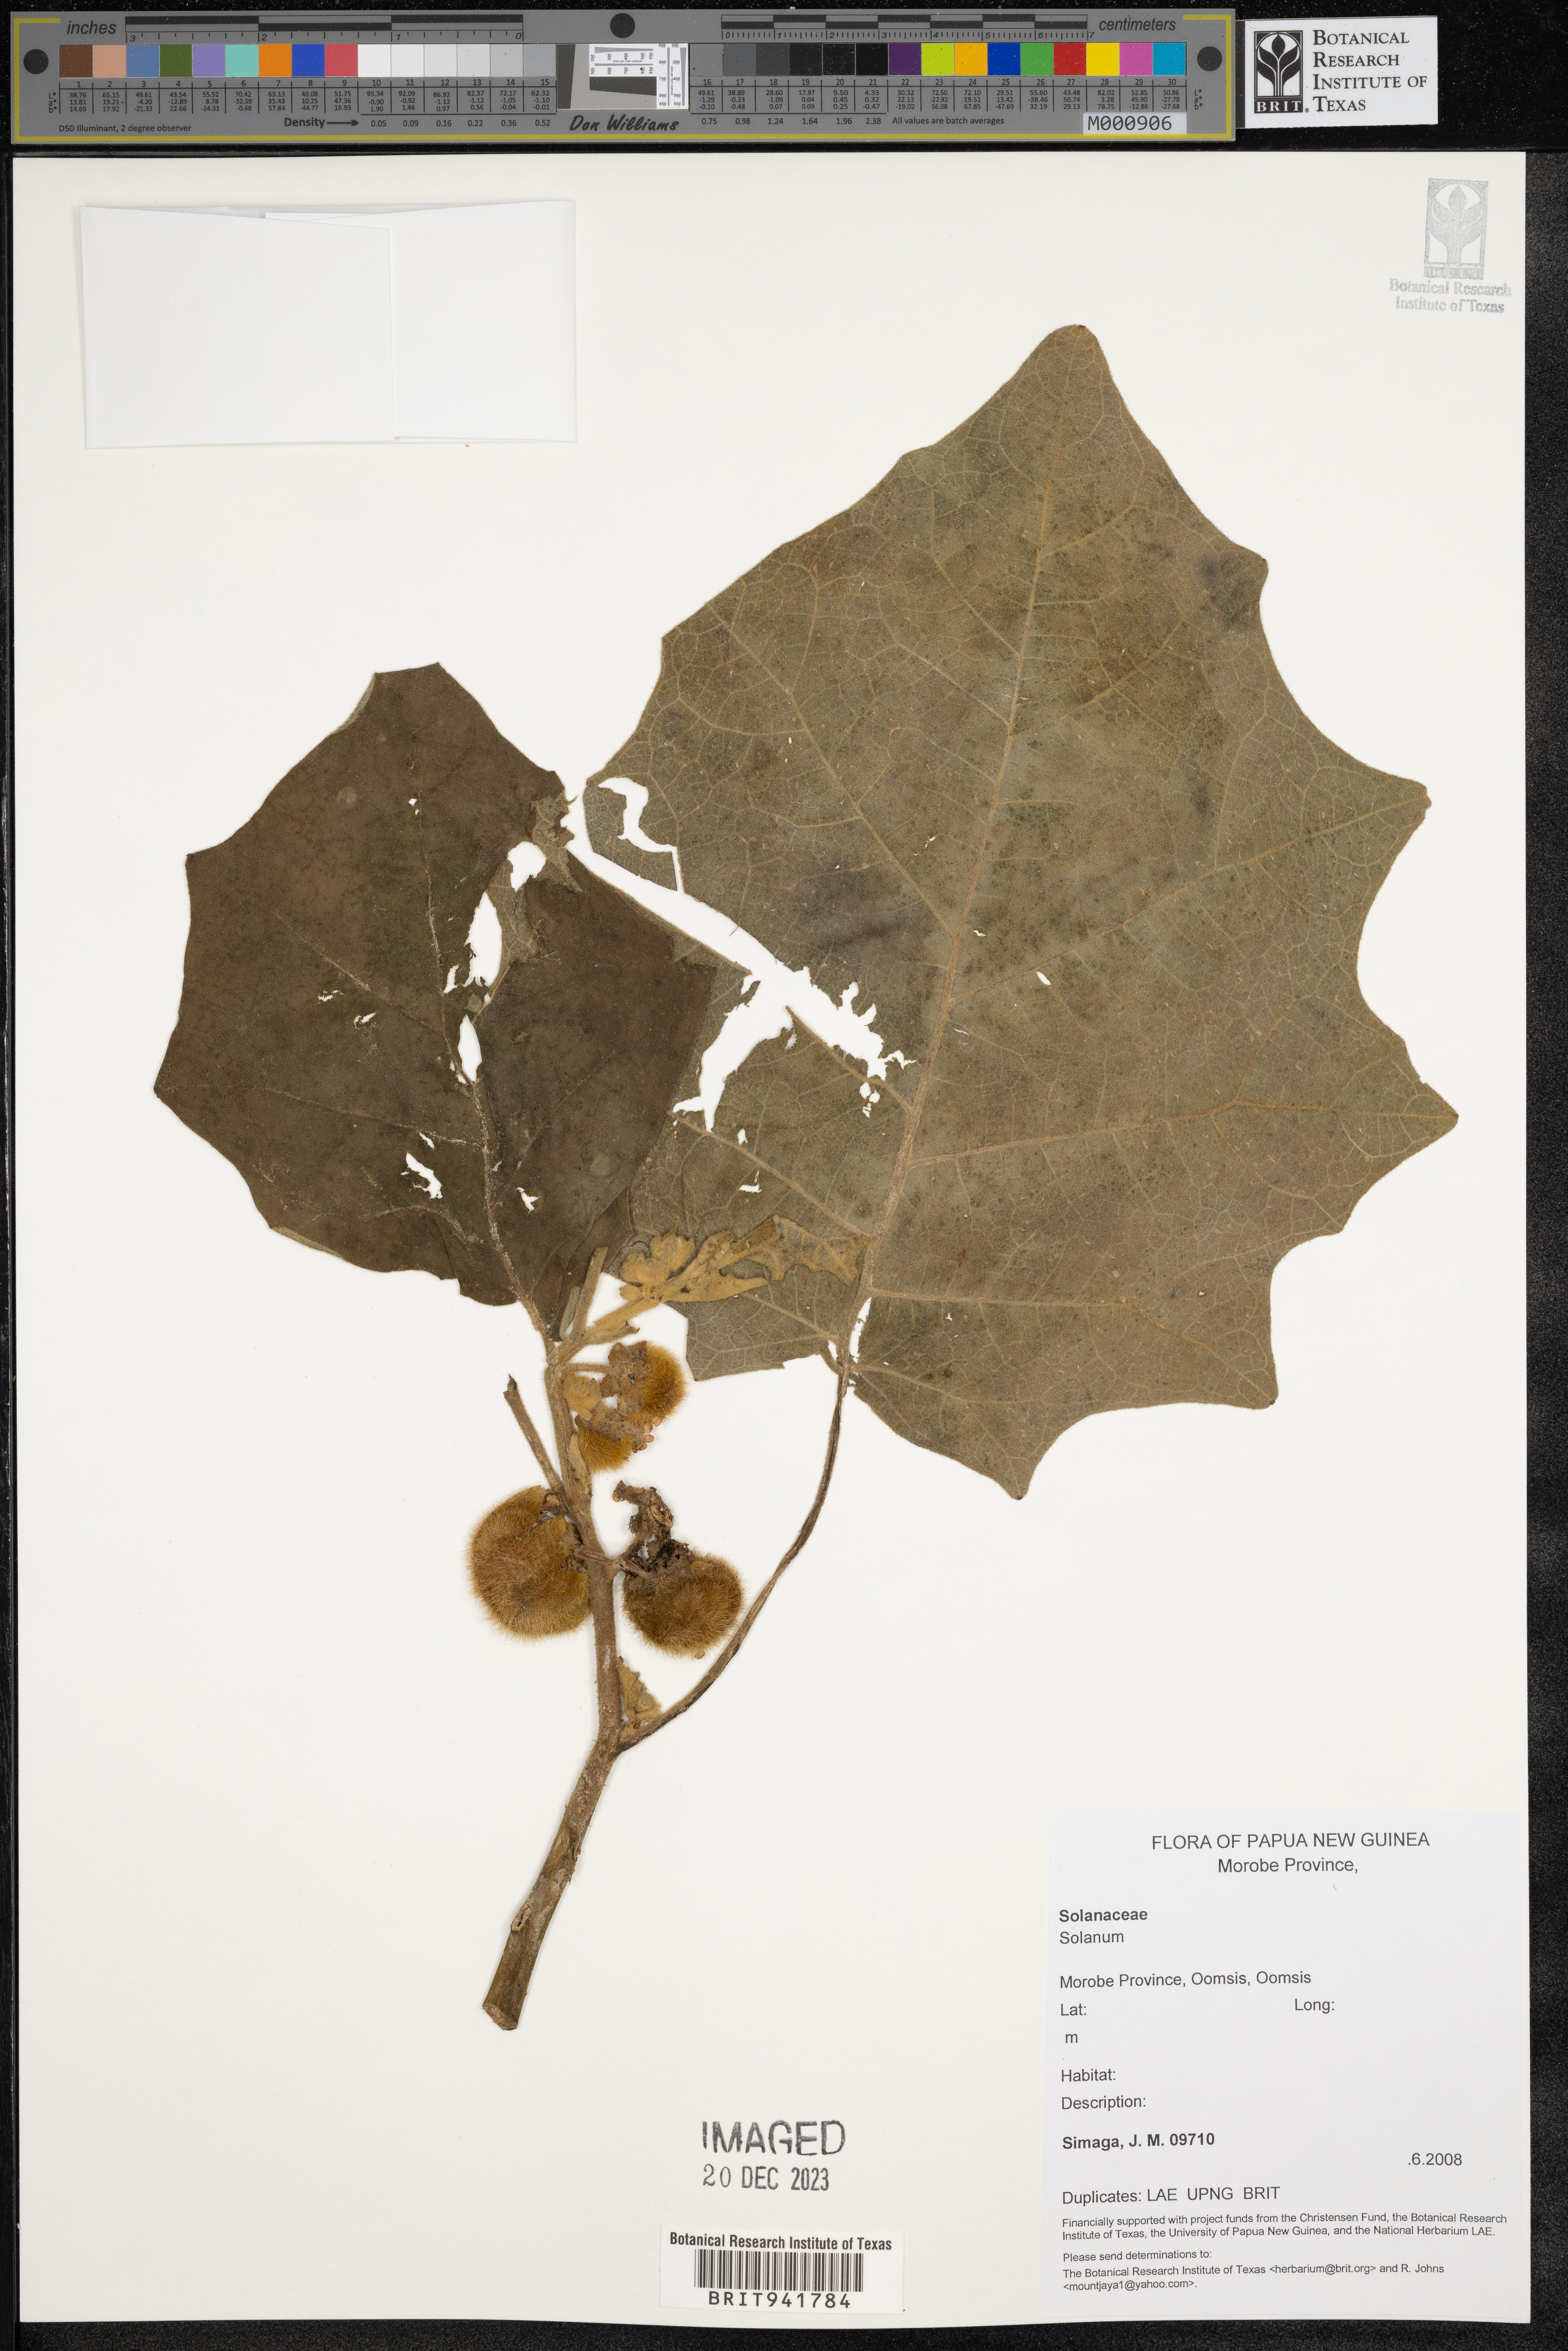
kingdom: Plantae
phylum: Tracheophyta
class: Magnoliopsida
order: Solanales
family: Solanaceae
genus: Solanum
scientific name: Solanum
